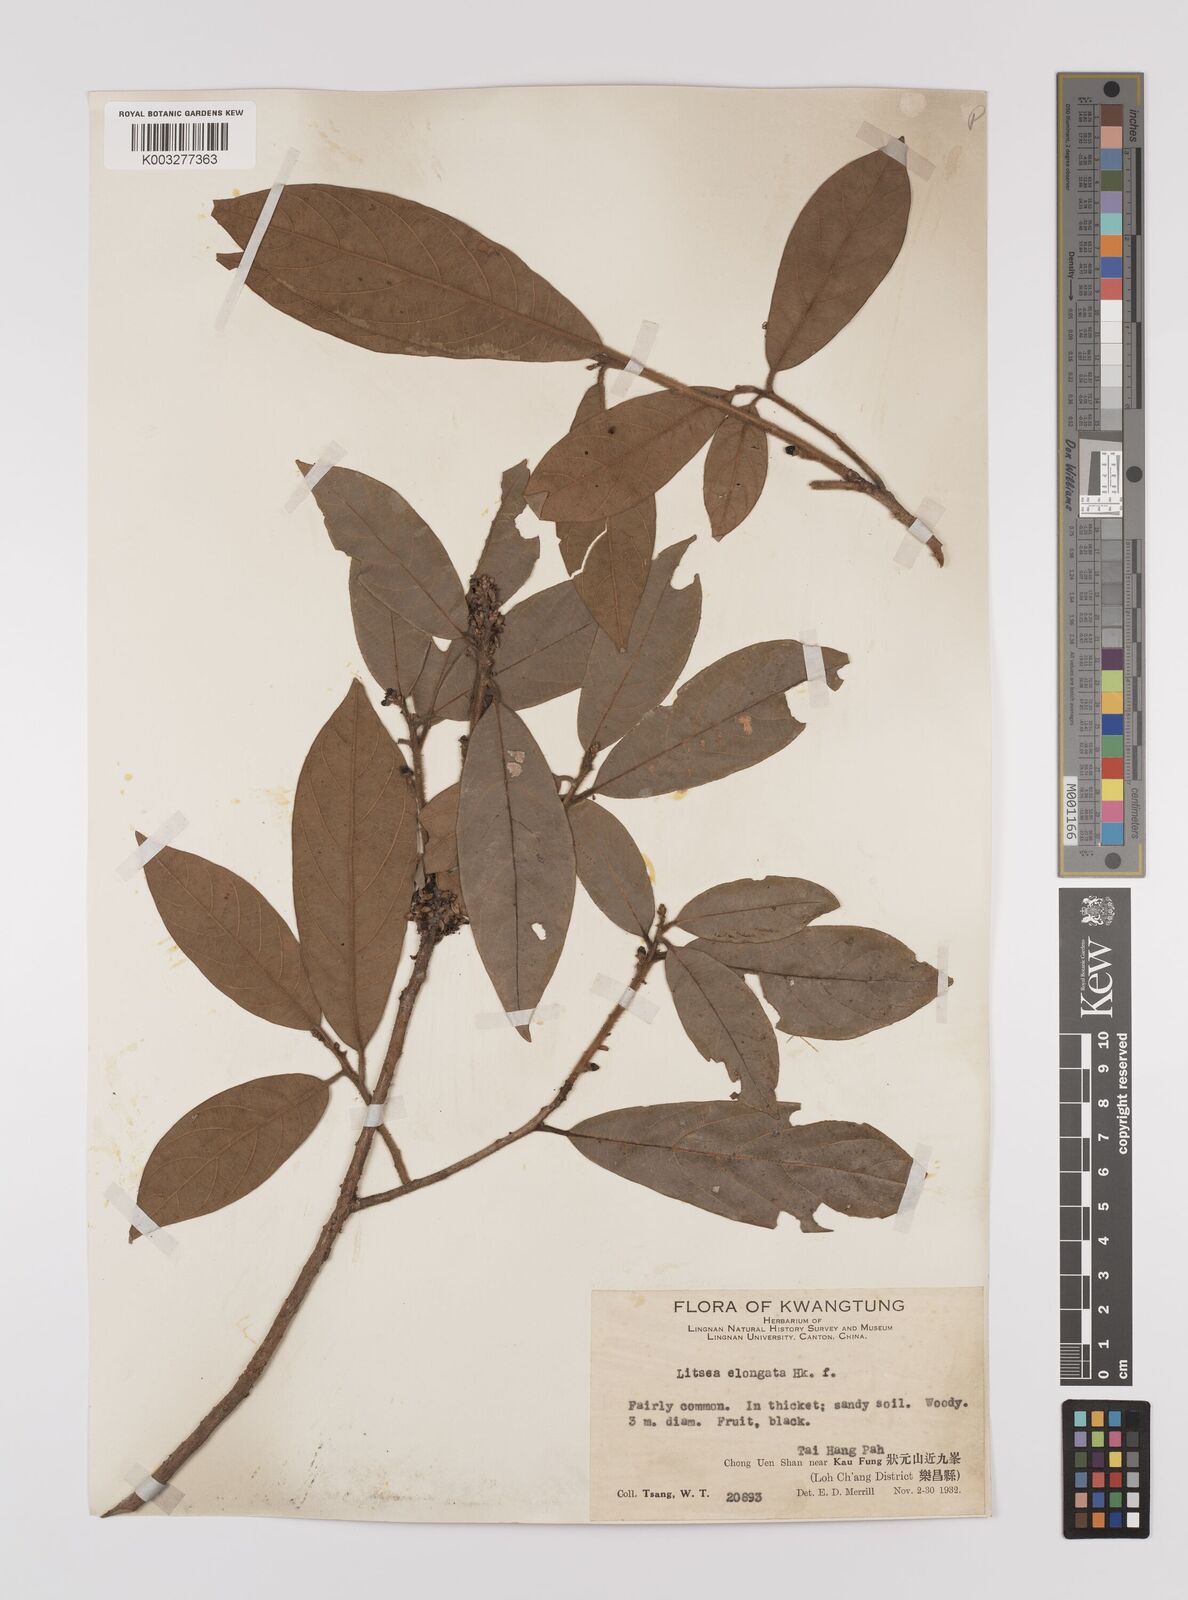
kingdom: Plantae
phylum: Tracheophyta
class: Magnoliopsida
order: Laurales
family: Lauraceae
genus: Litsea
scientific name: Litsea elongata
